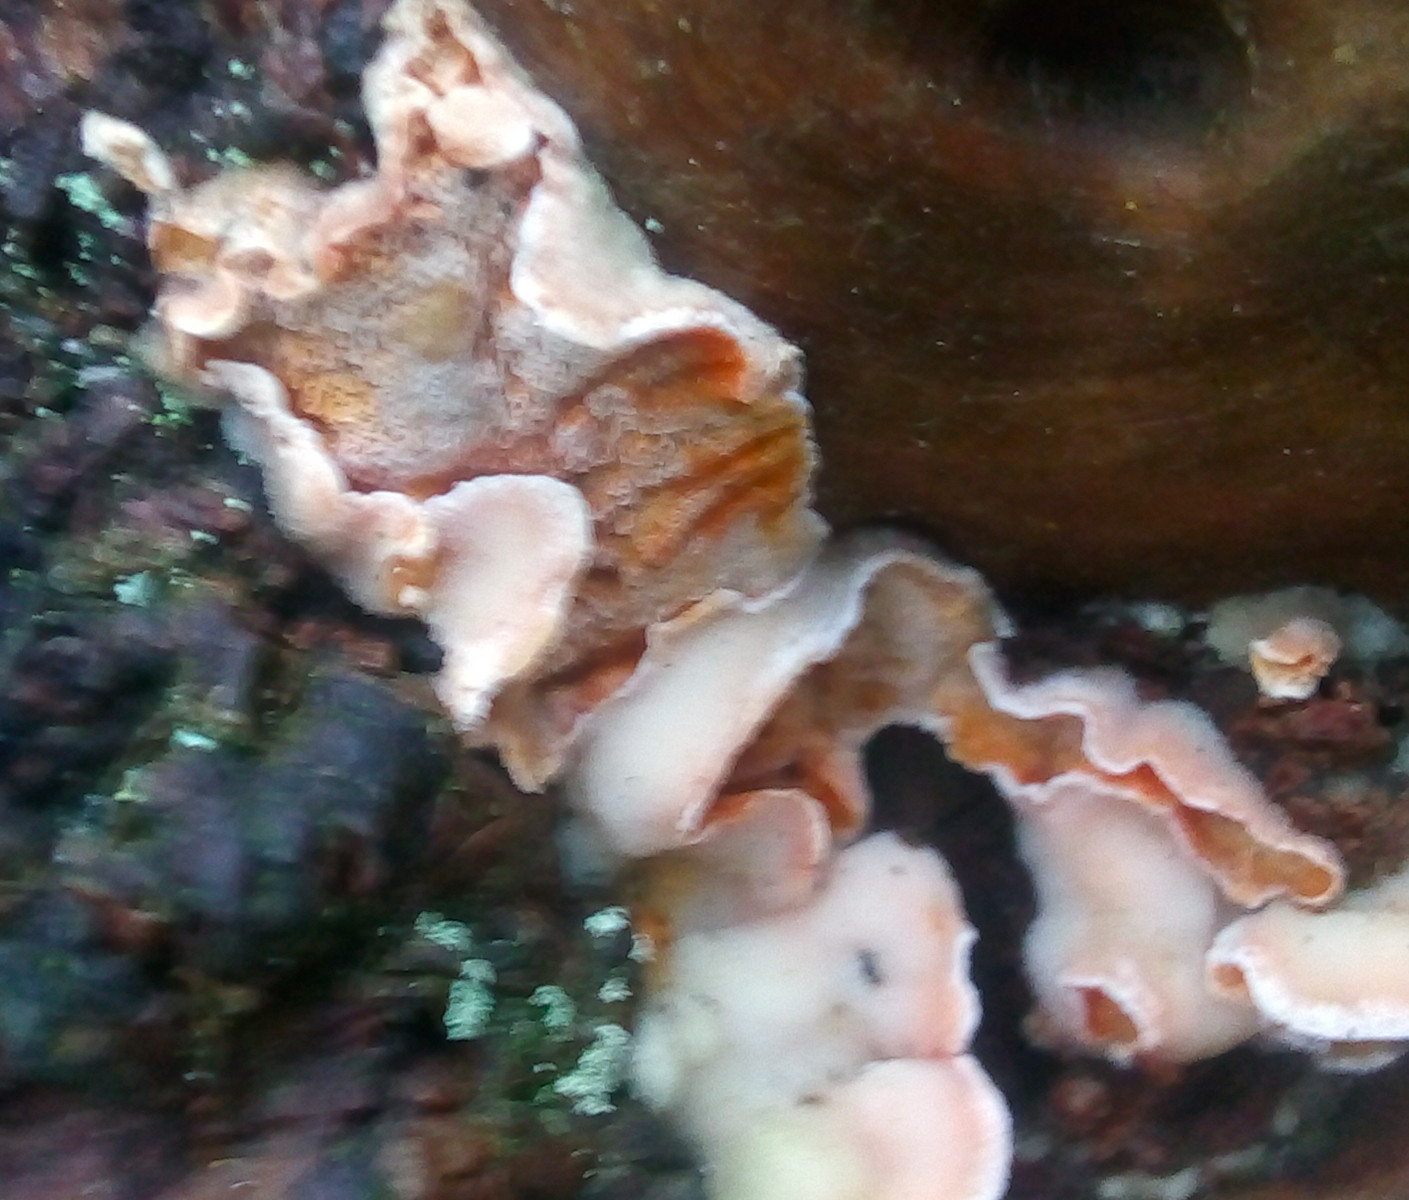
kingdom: Fungi
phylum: Basidiomycota
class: Agaricomycetes
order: Polyporales
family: Incrustoporiaceae
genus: Skeletocutis
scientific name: Skeletocutis amorpha
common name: orange krystalporesvamp
